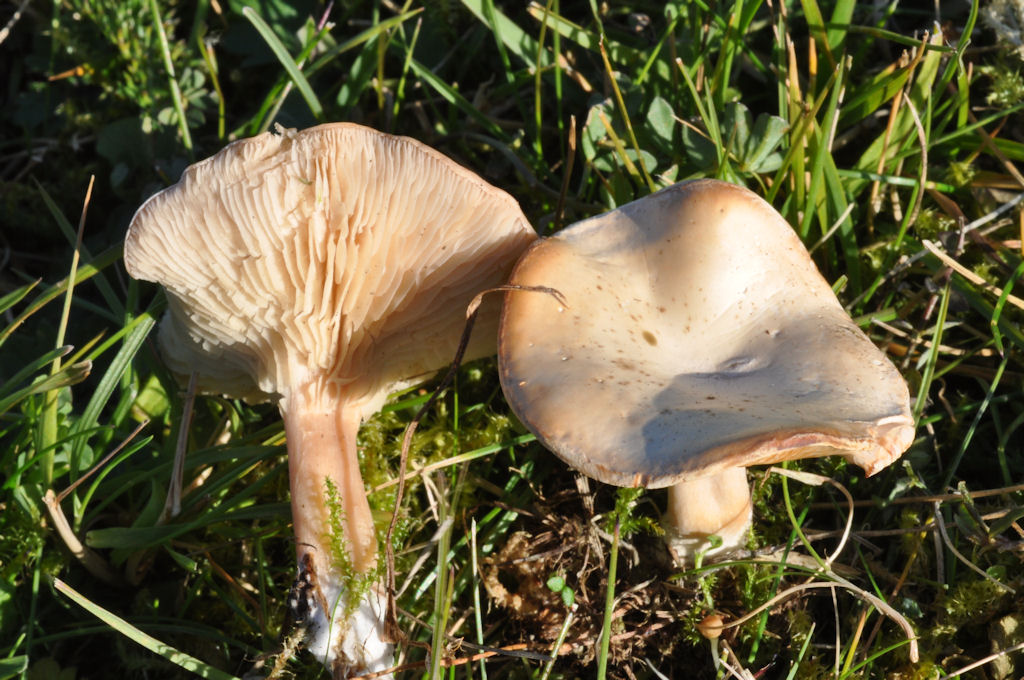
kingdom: Fungi
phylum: Basidiomycota
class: Agaricomycetes
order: Agaricales
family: Tricholomataceae
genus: Clitocybe
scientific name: Clitocybe rivulosa
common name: eng-tragthat
